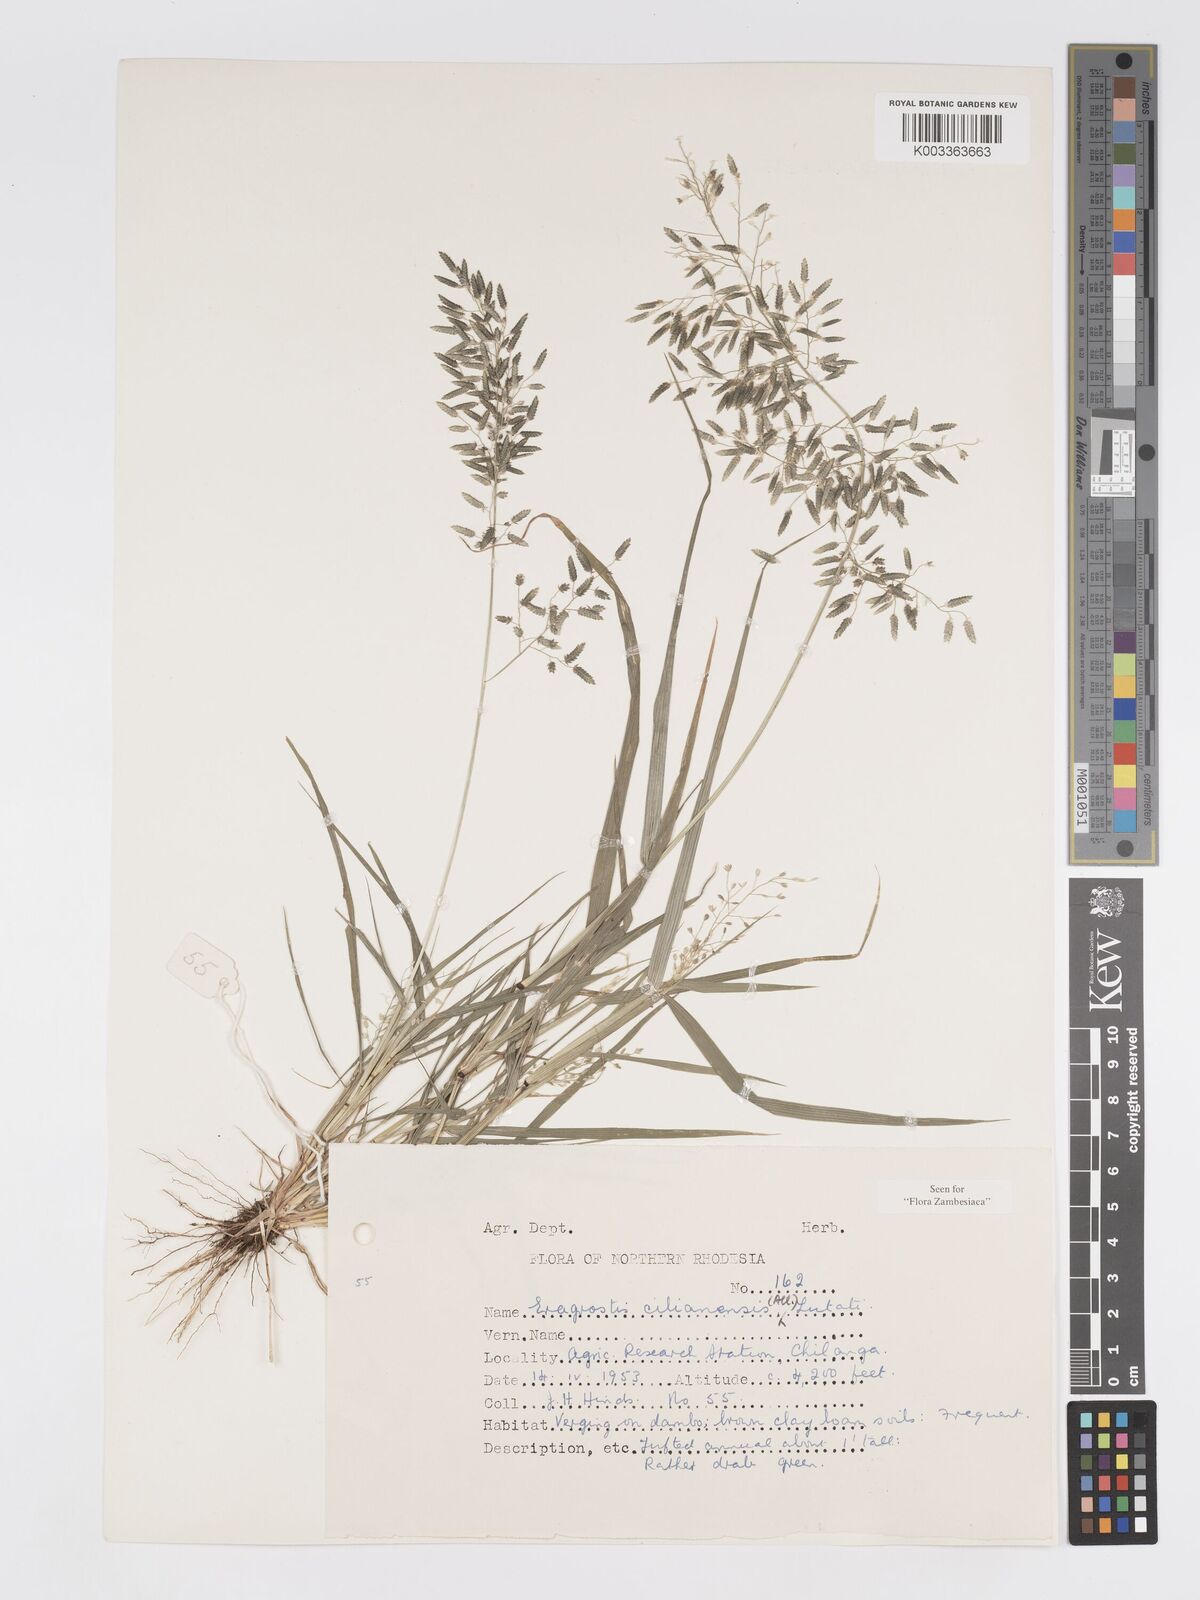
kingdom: Plantae
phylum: Tracheophyta
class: Liliopsida
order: Poales
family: Poaceae
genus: Eragrostis
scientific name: Eragrostis cilianensis
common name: Stinkgrass
